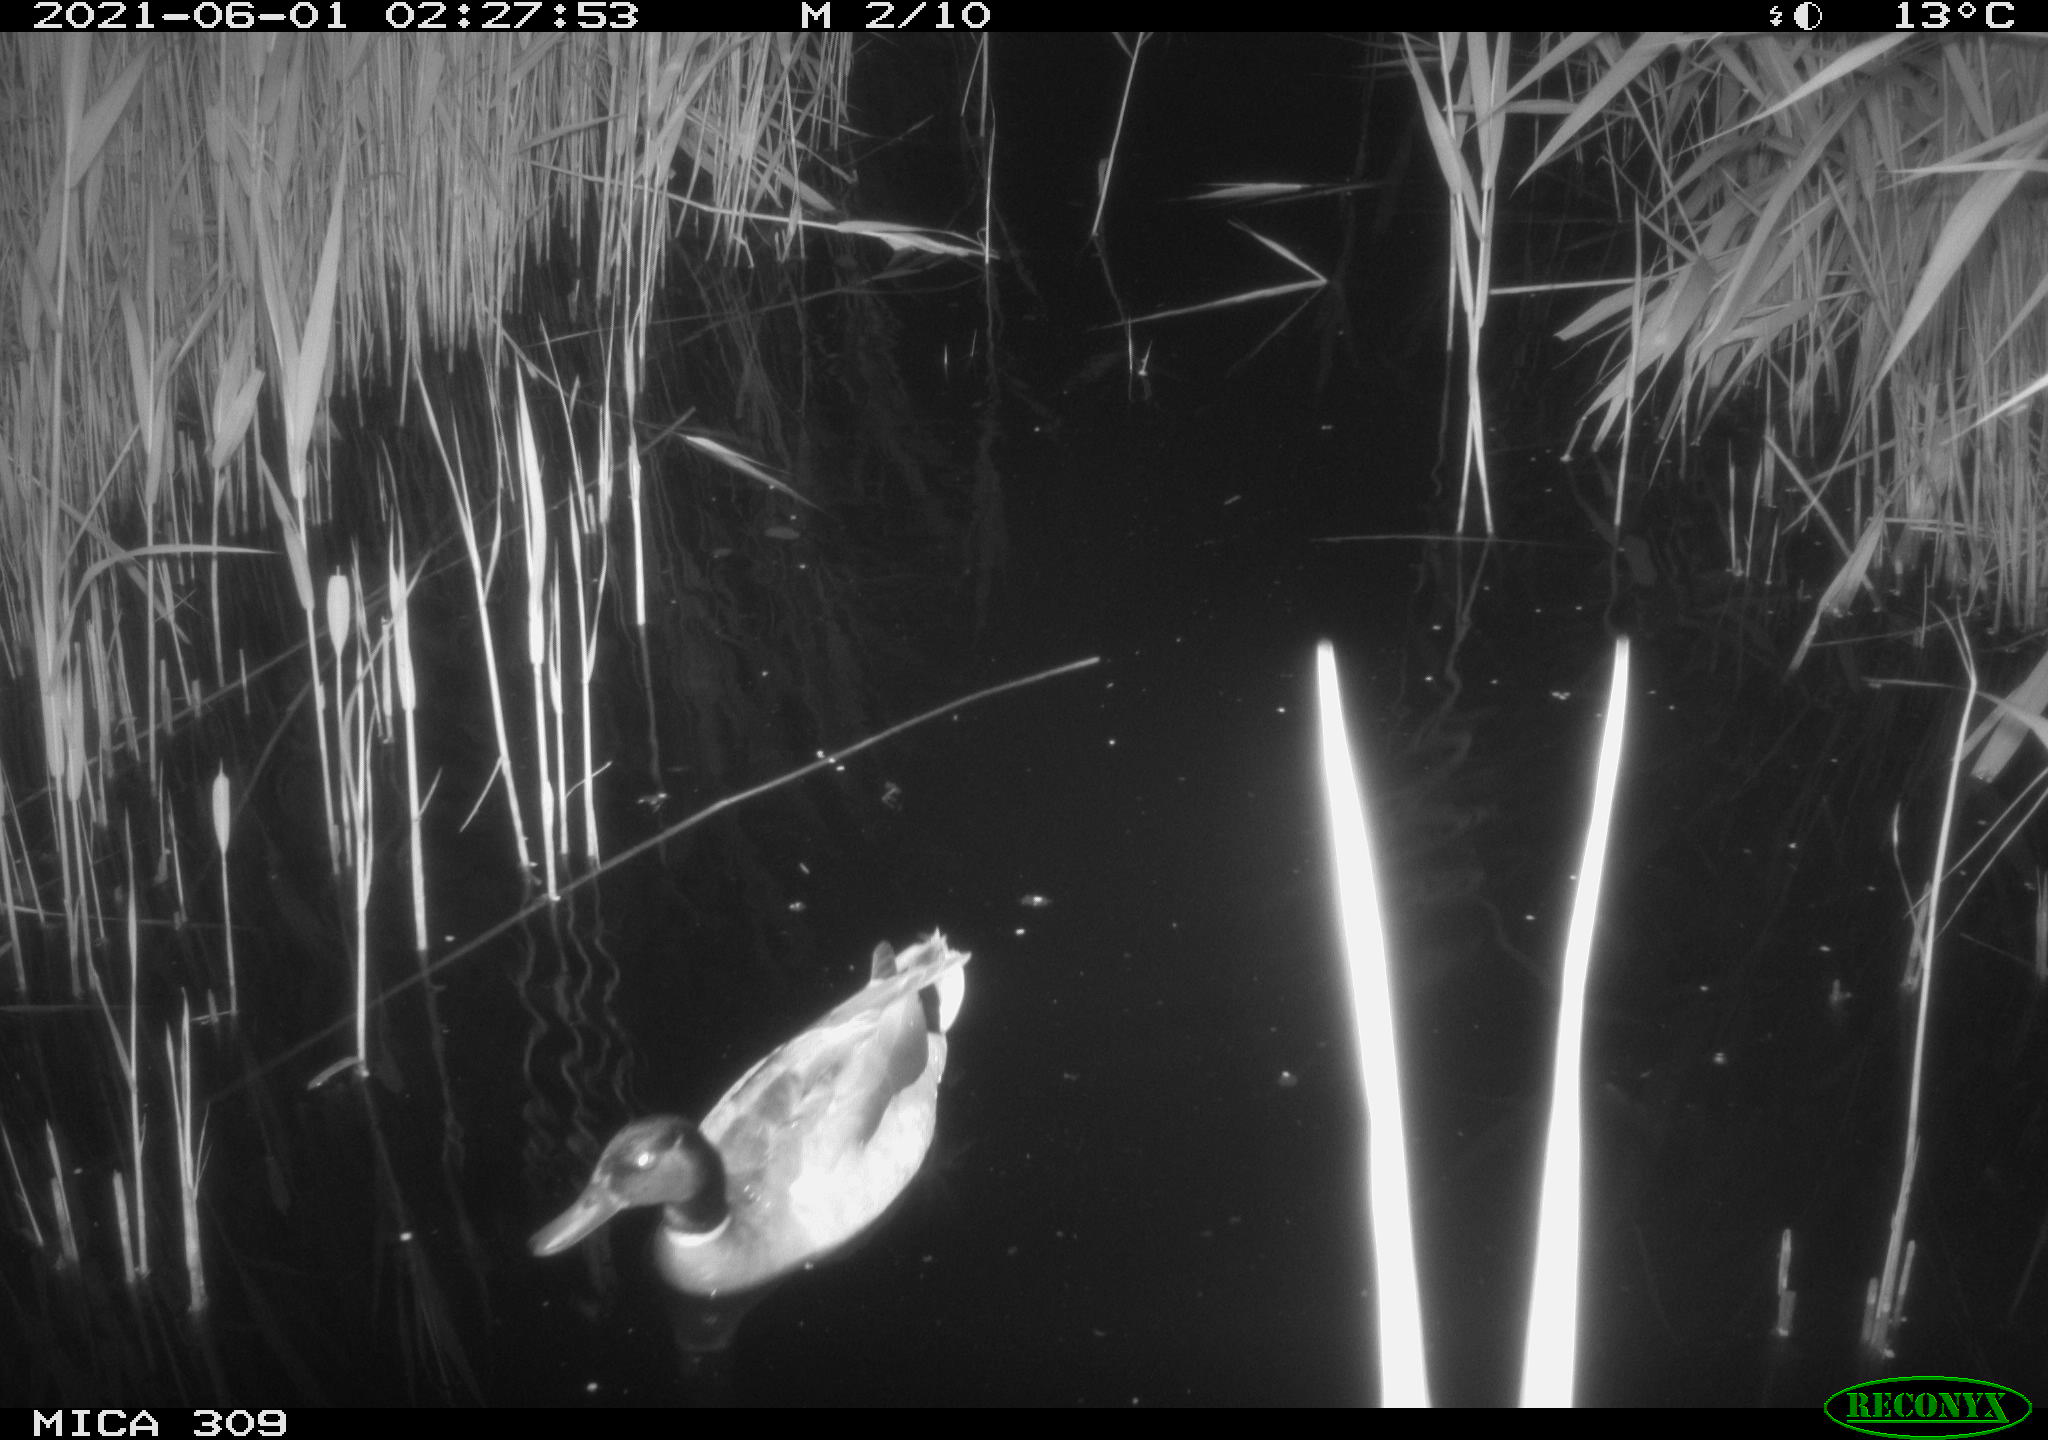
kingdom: Animalia
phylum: Chordata
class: Aves
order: Anseriformes
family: Anatidae
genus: Mareca
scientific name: Mareca strepera
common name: Gadwall
